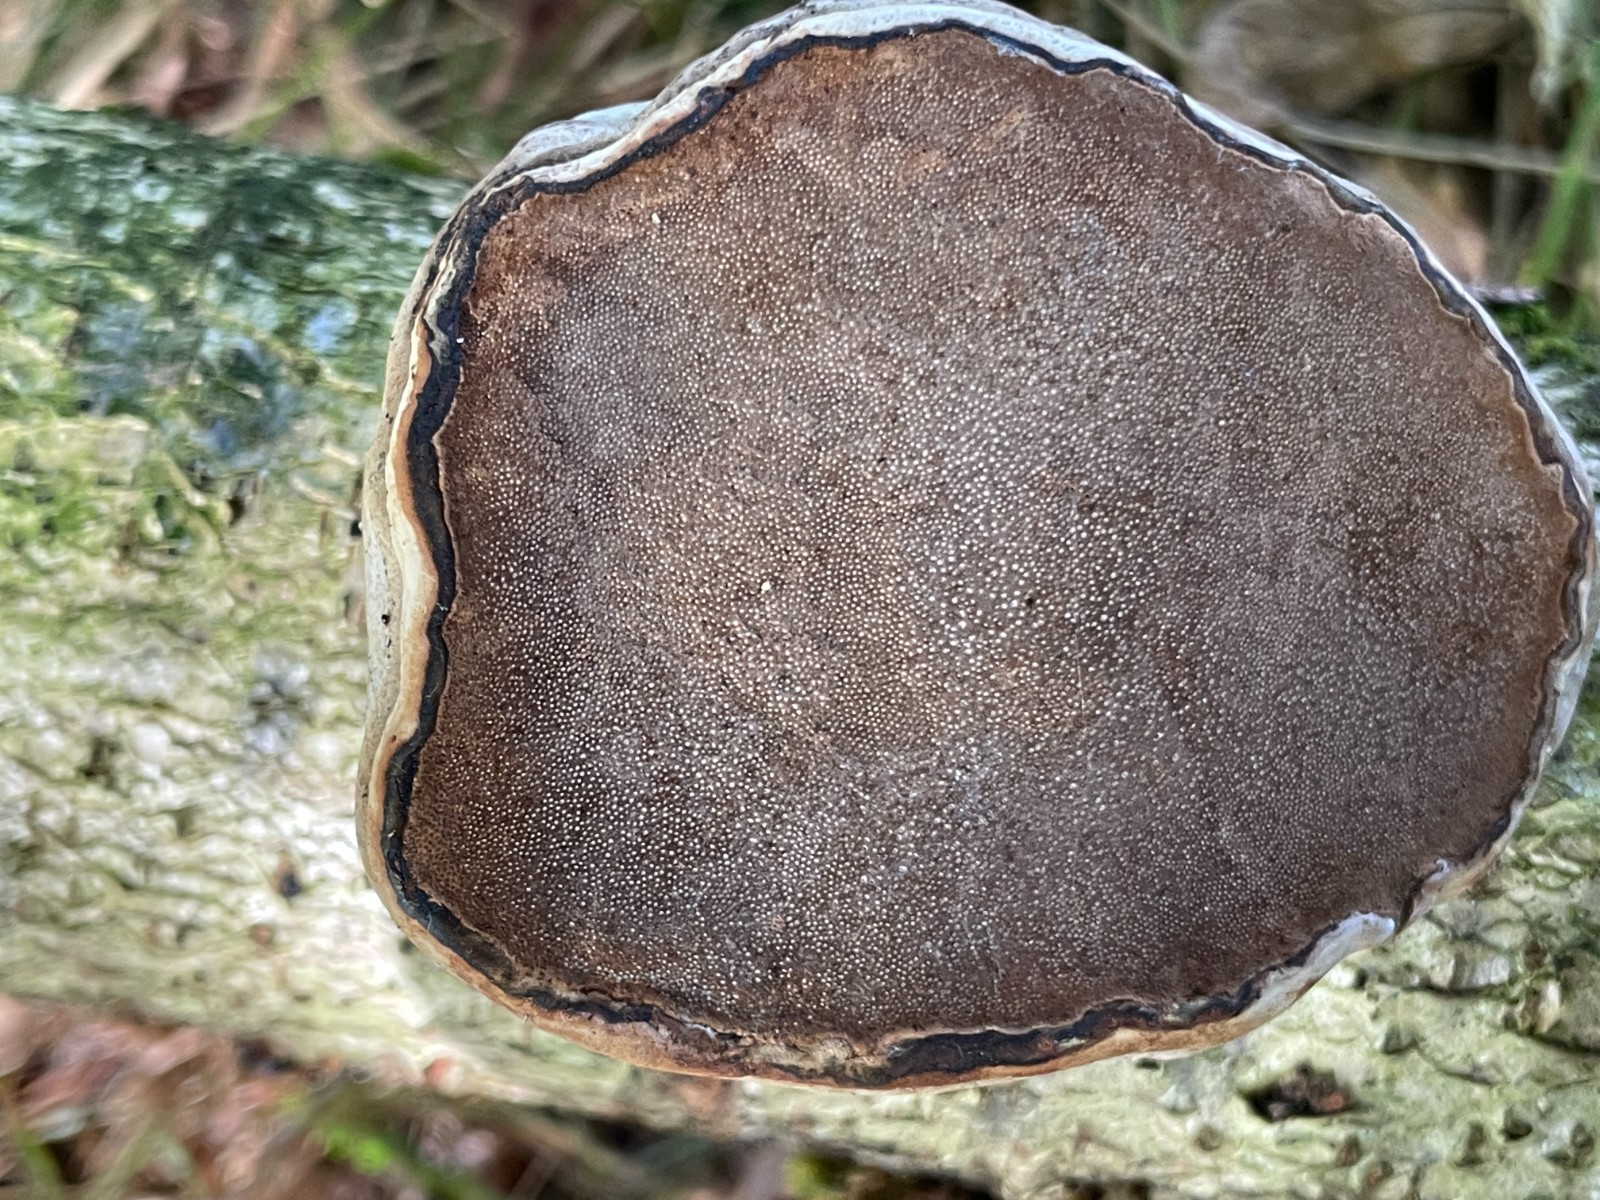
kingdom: Fungi
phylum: Basidiomycota
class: Agaricomycetes
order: Polyporales
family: Polyporaceae
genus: Fomes
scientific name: Fomes fomentarius
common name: tøndersvamp
